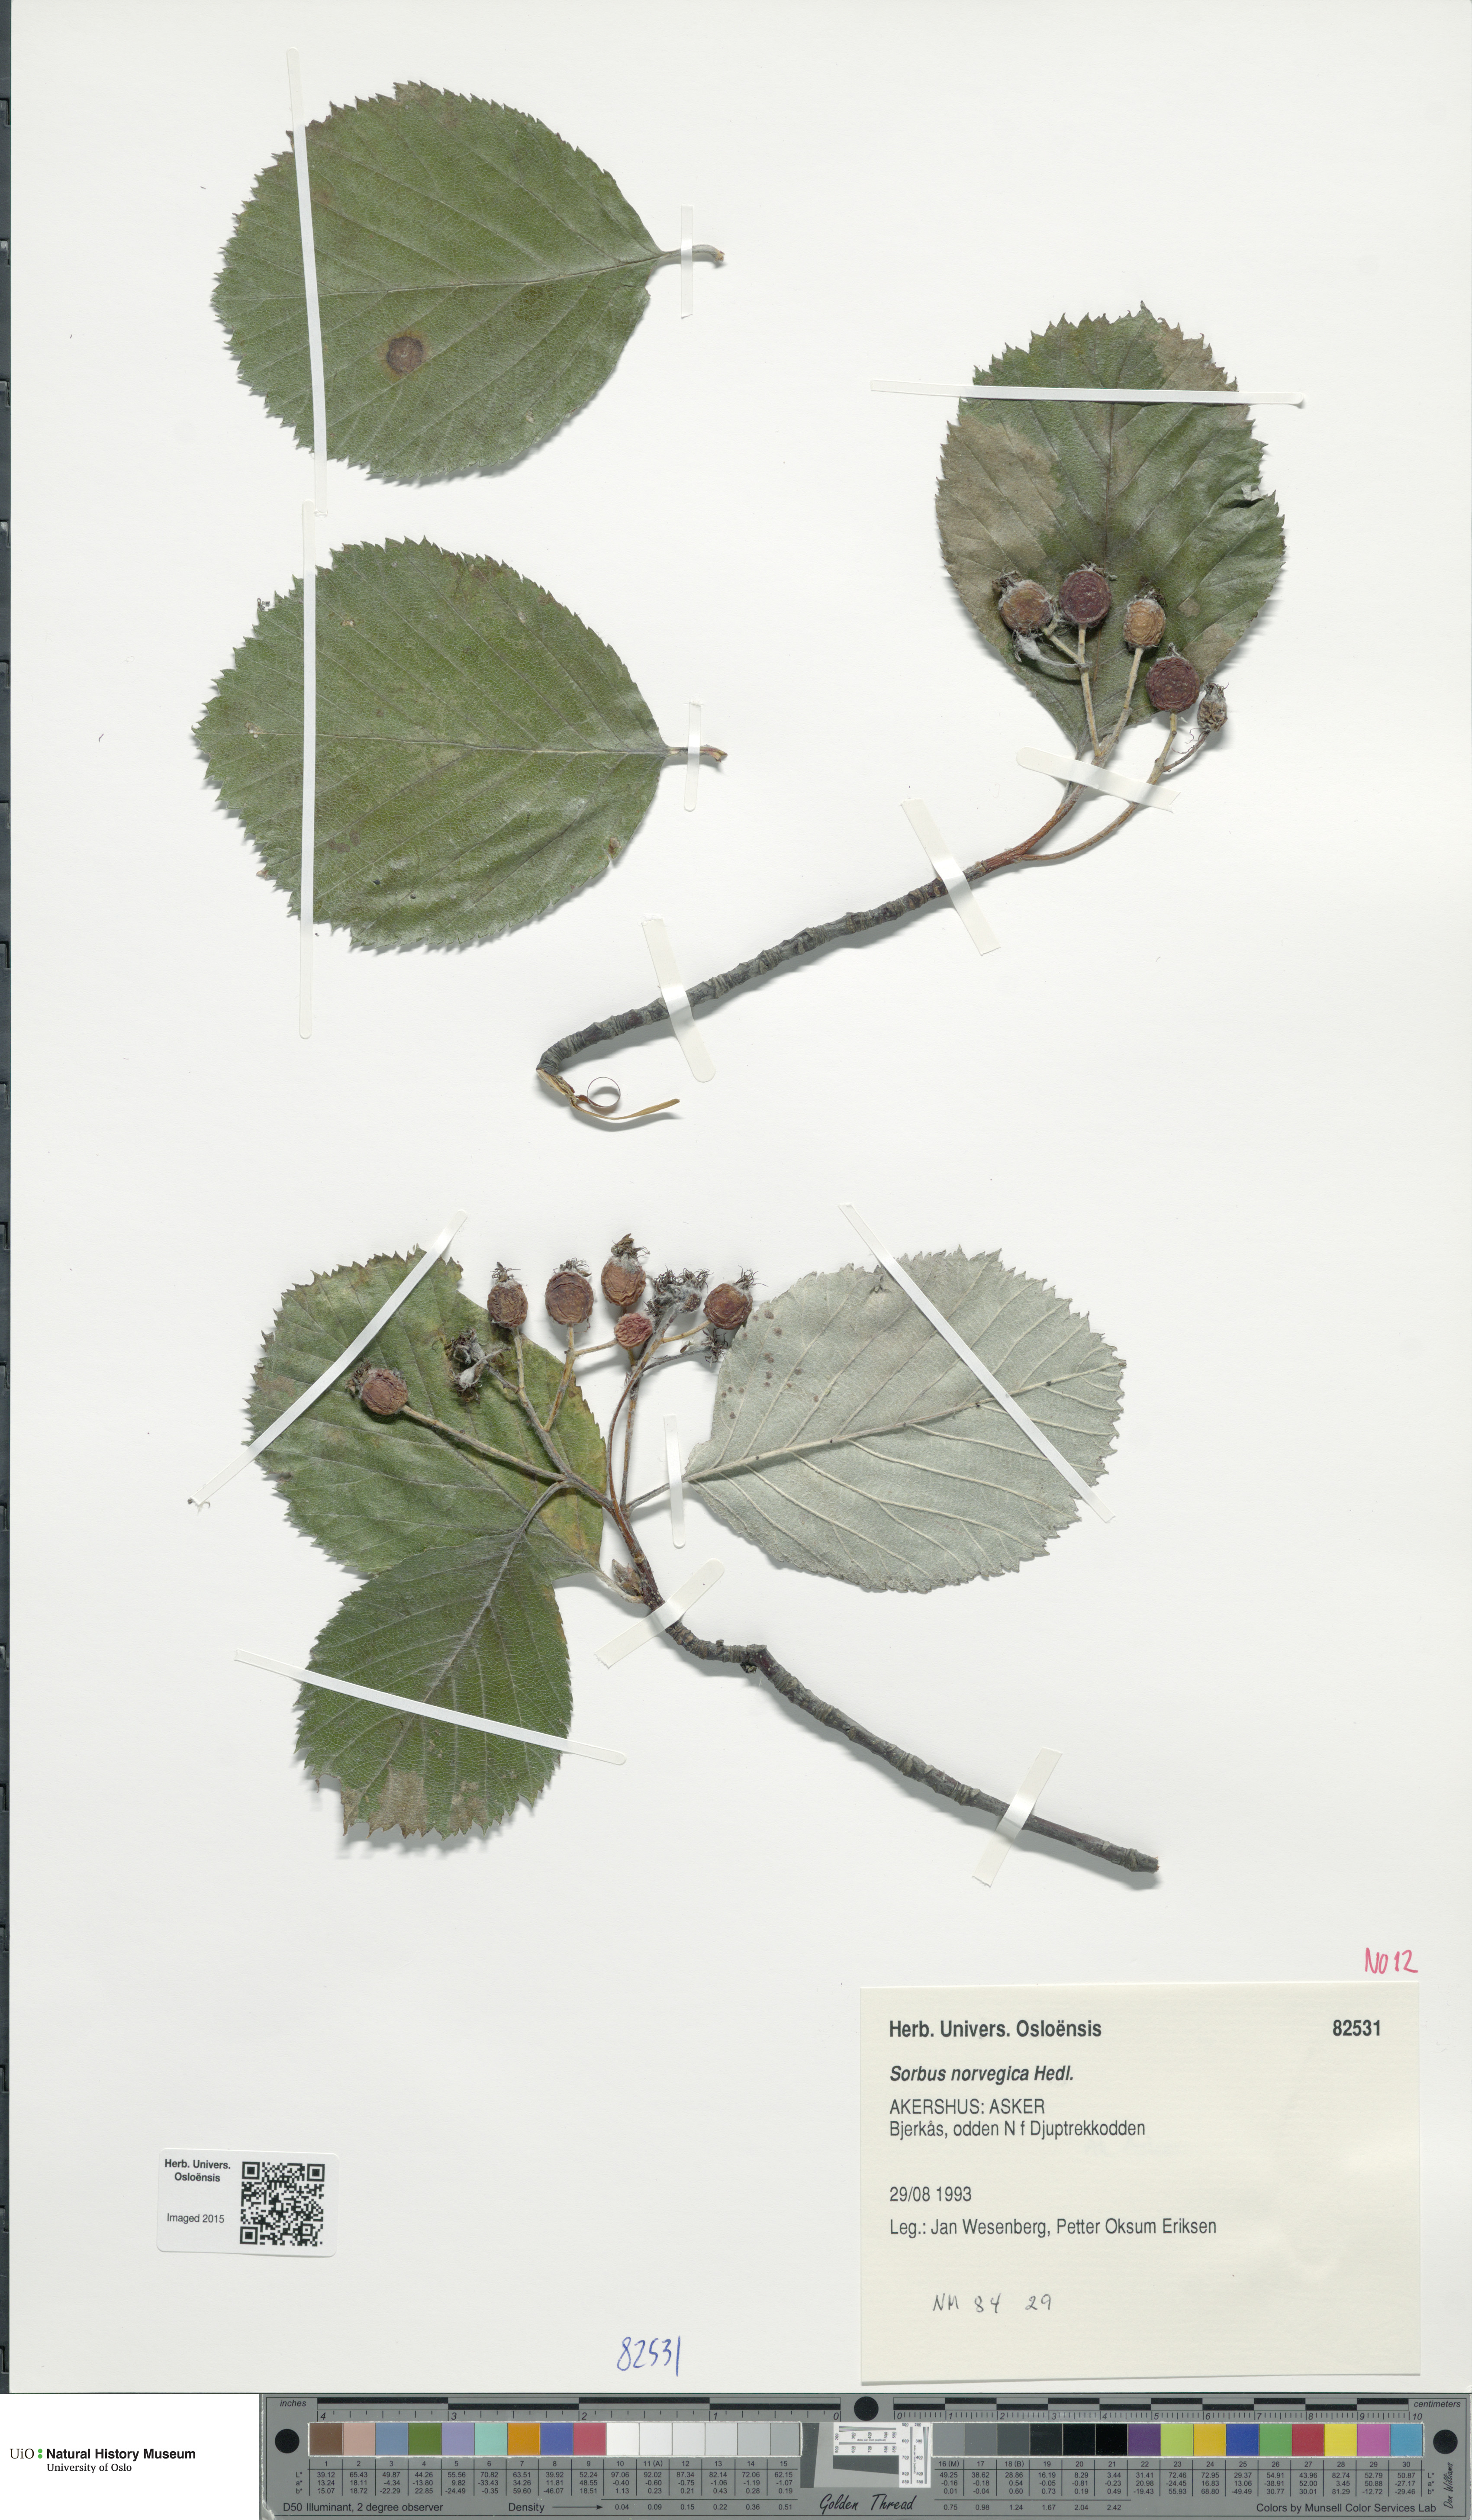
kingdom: Plantae
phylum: Tracheophyta
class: Magnoliopsida
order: Rosales
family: Rosaceae
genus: Aria
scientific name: Aria obtusifolia
